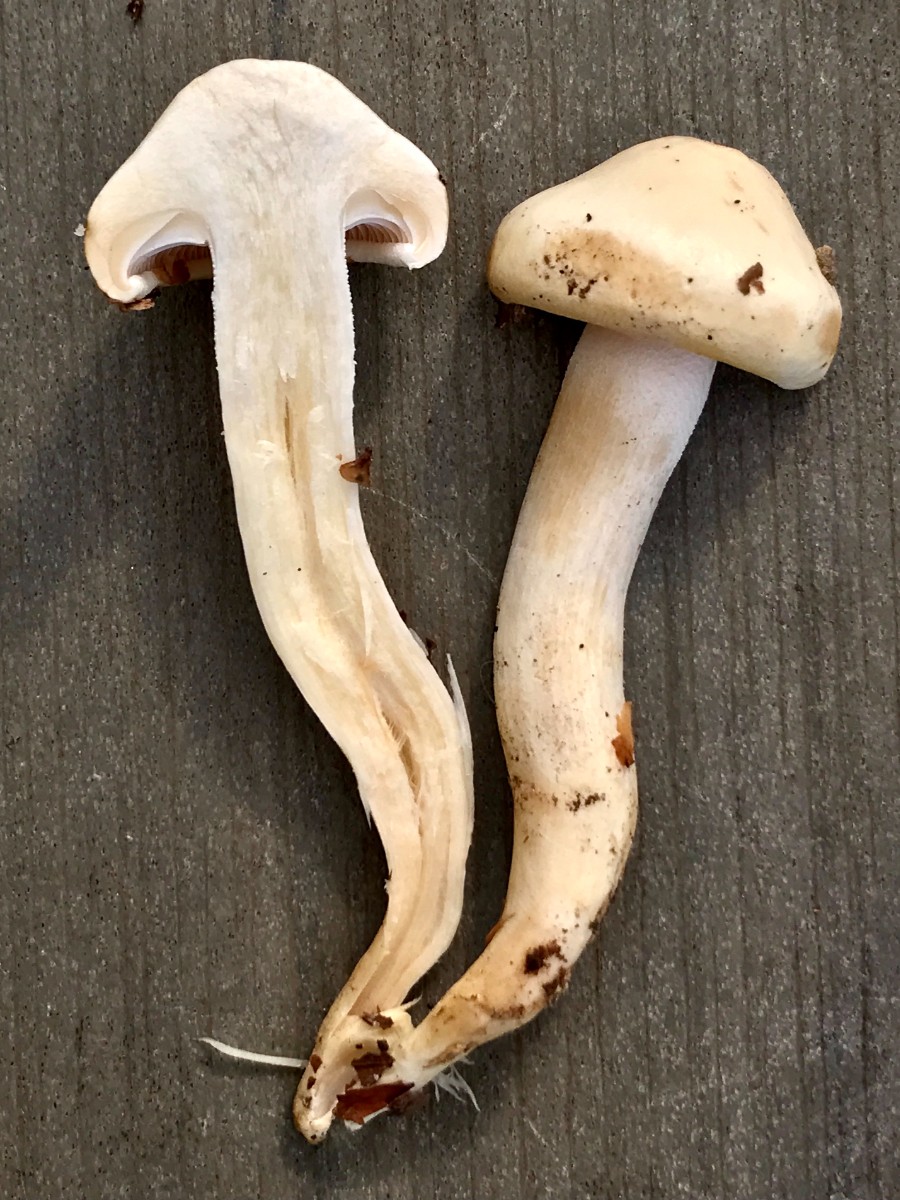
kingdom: Fungi
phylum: Basidiomycota
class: Agaricomycetes
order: Agaricales
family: Hygrophoraceae
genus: Hygrophorus
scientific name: Hygrophorus
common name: sneglehat
